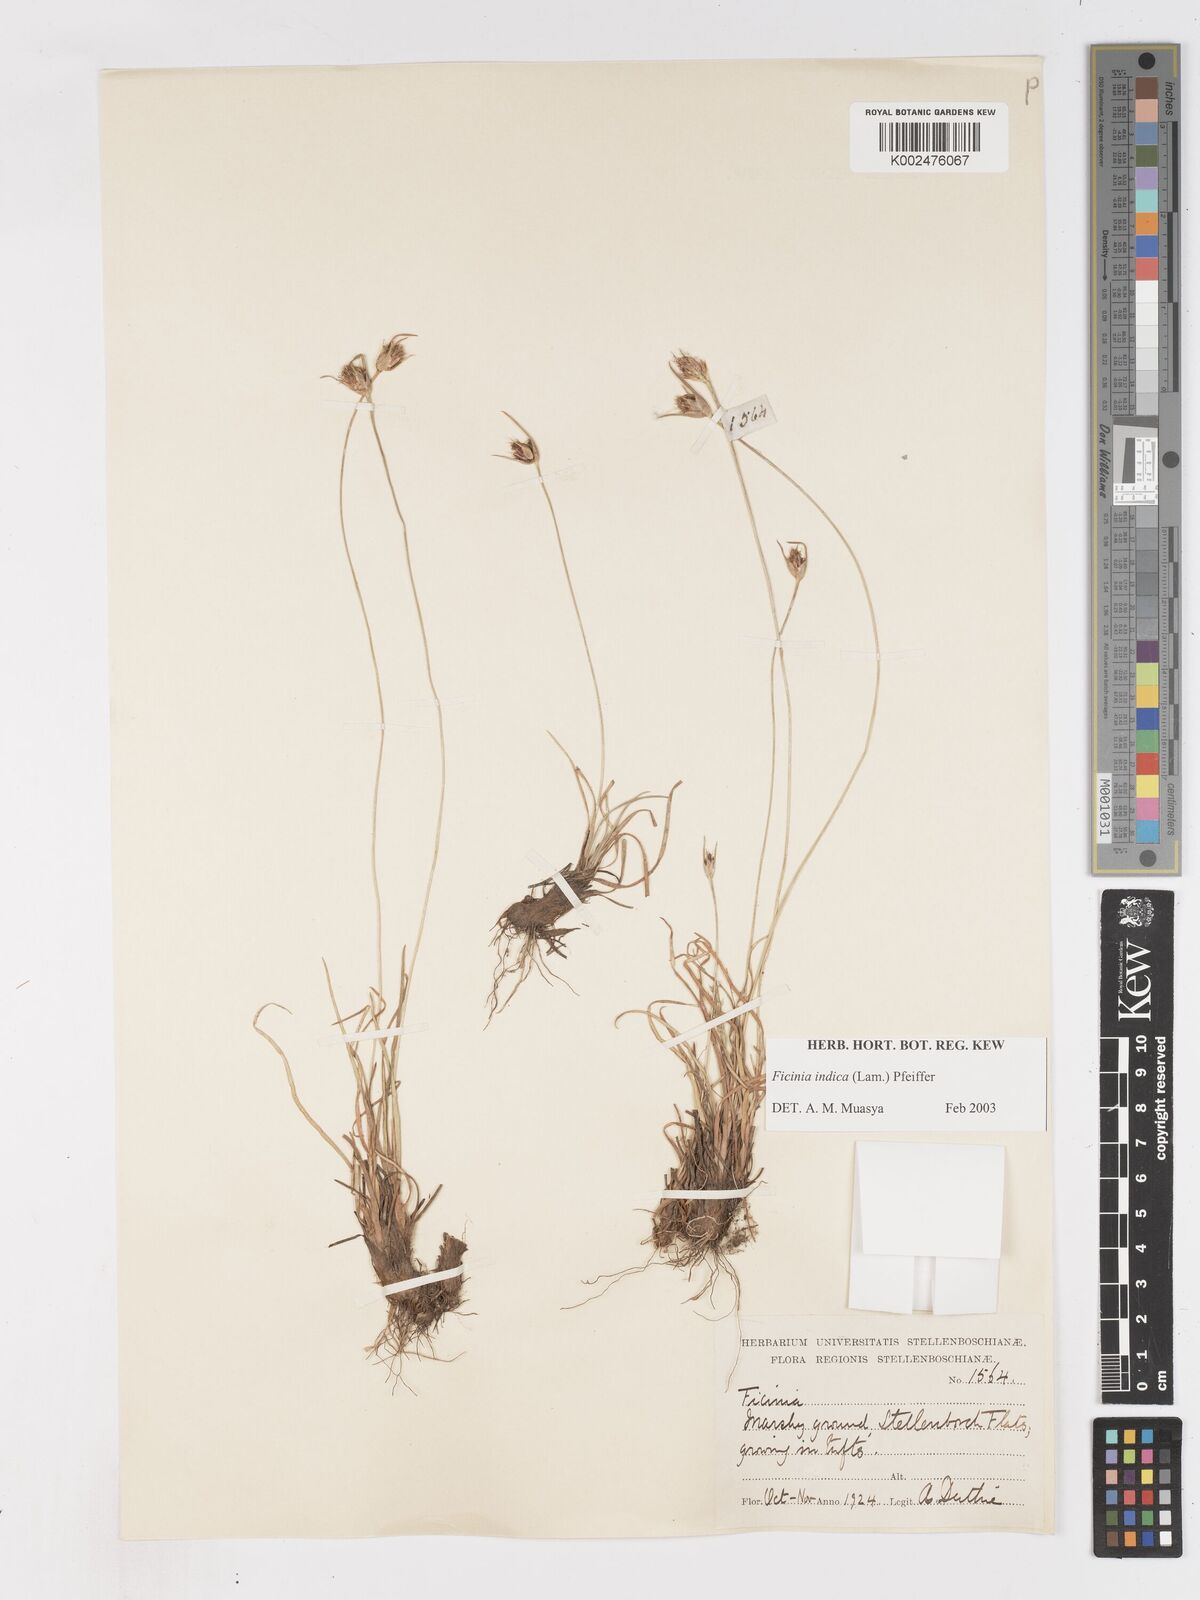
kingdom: Plantae
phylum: Tracheophyta
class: Liliopsida
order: Poales
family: Cyperaceae
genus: Ficinia
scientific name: Ficinia indica
